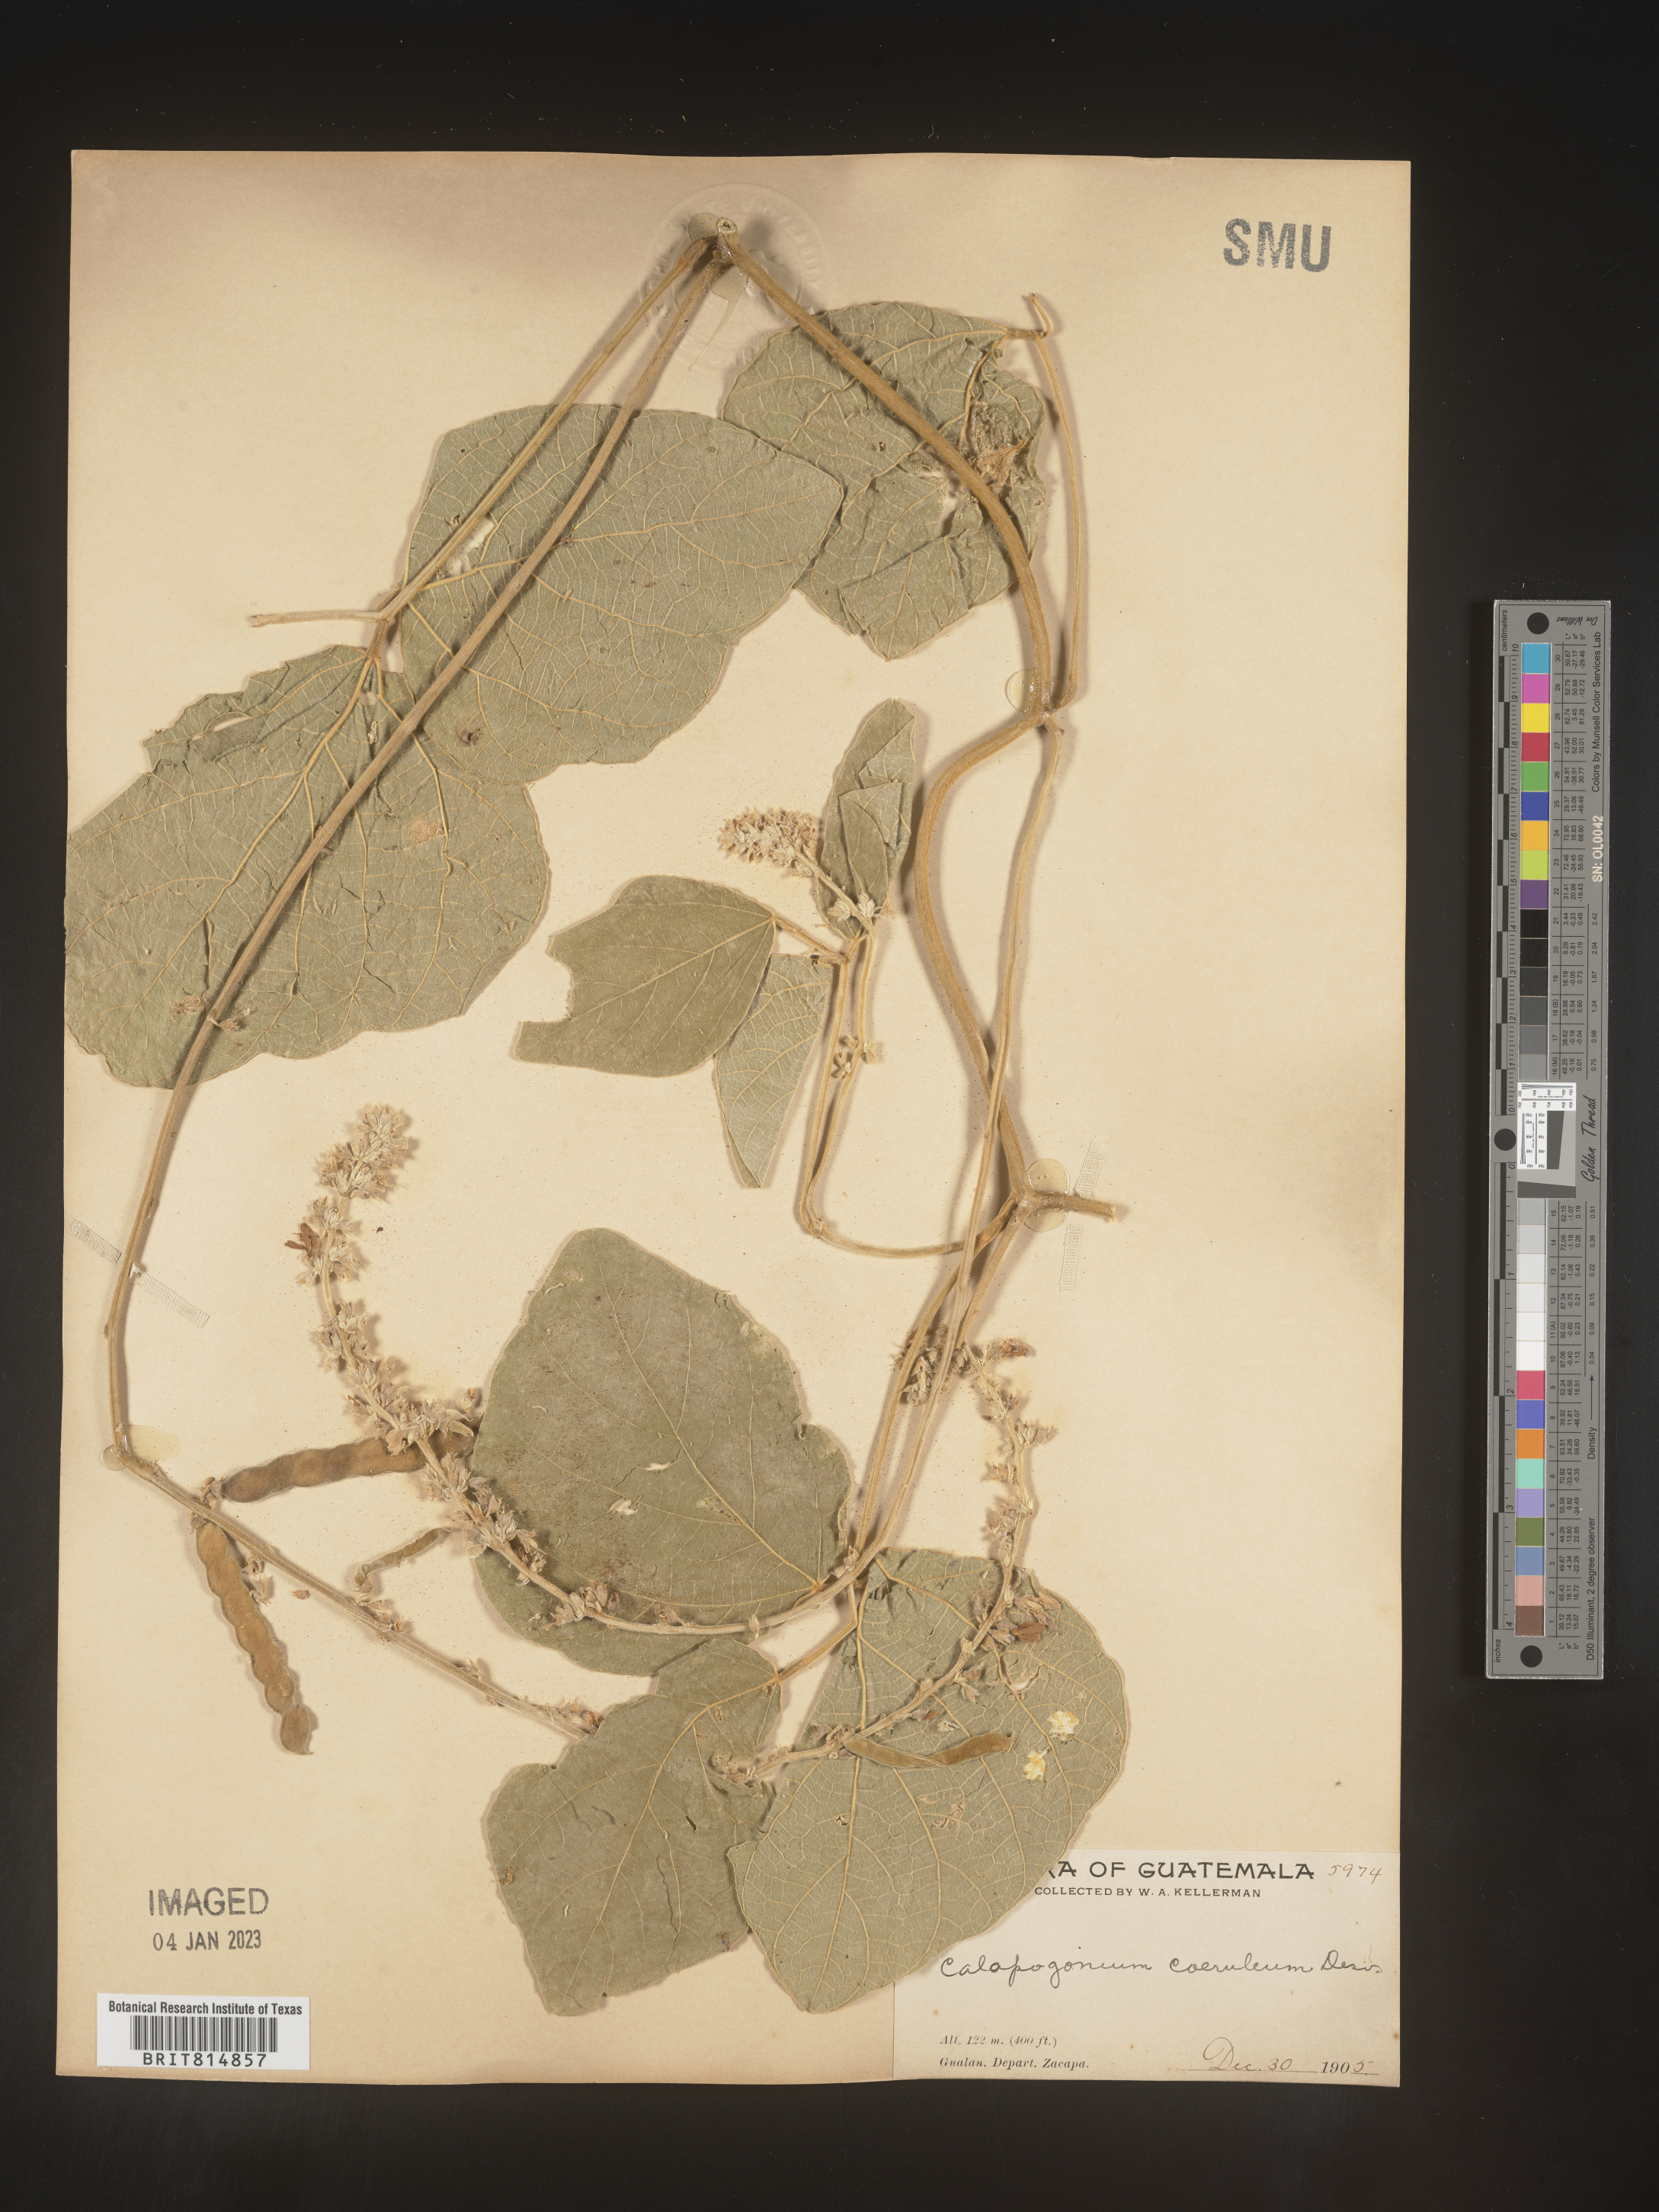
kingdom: Plantae
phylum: Tracheophyta
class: Magnoliopsida
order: Fabales
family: Fabaceae
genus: Calopogonium
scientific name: Calopogonium
